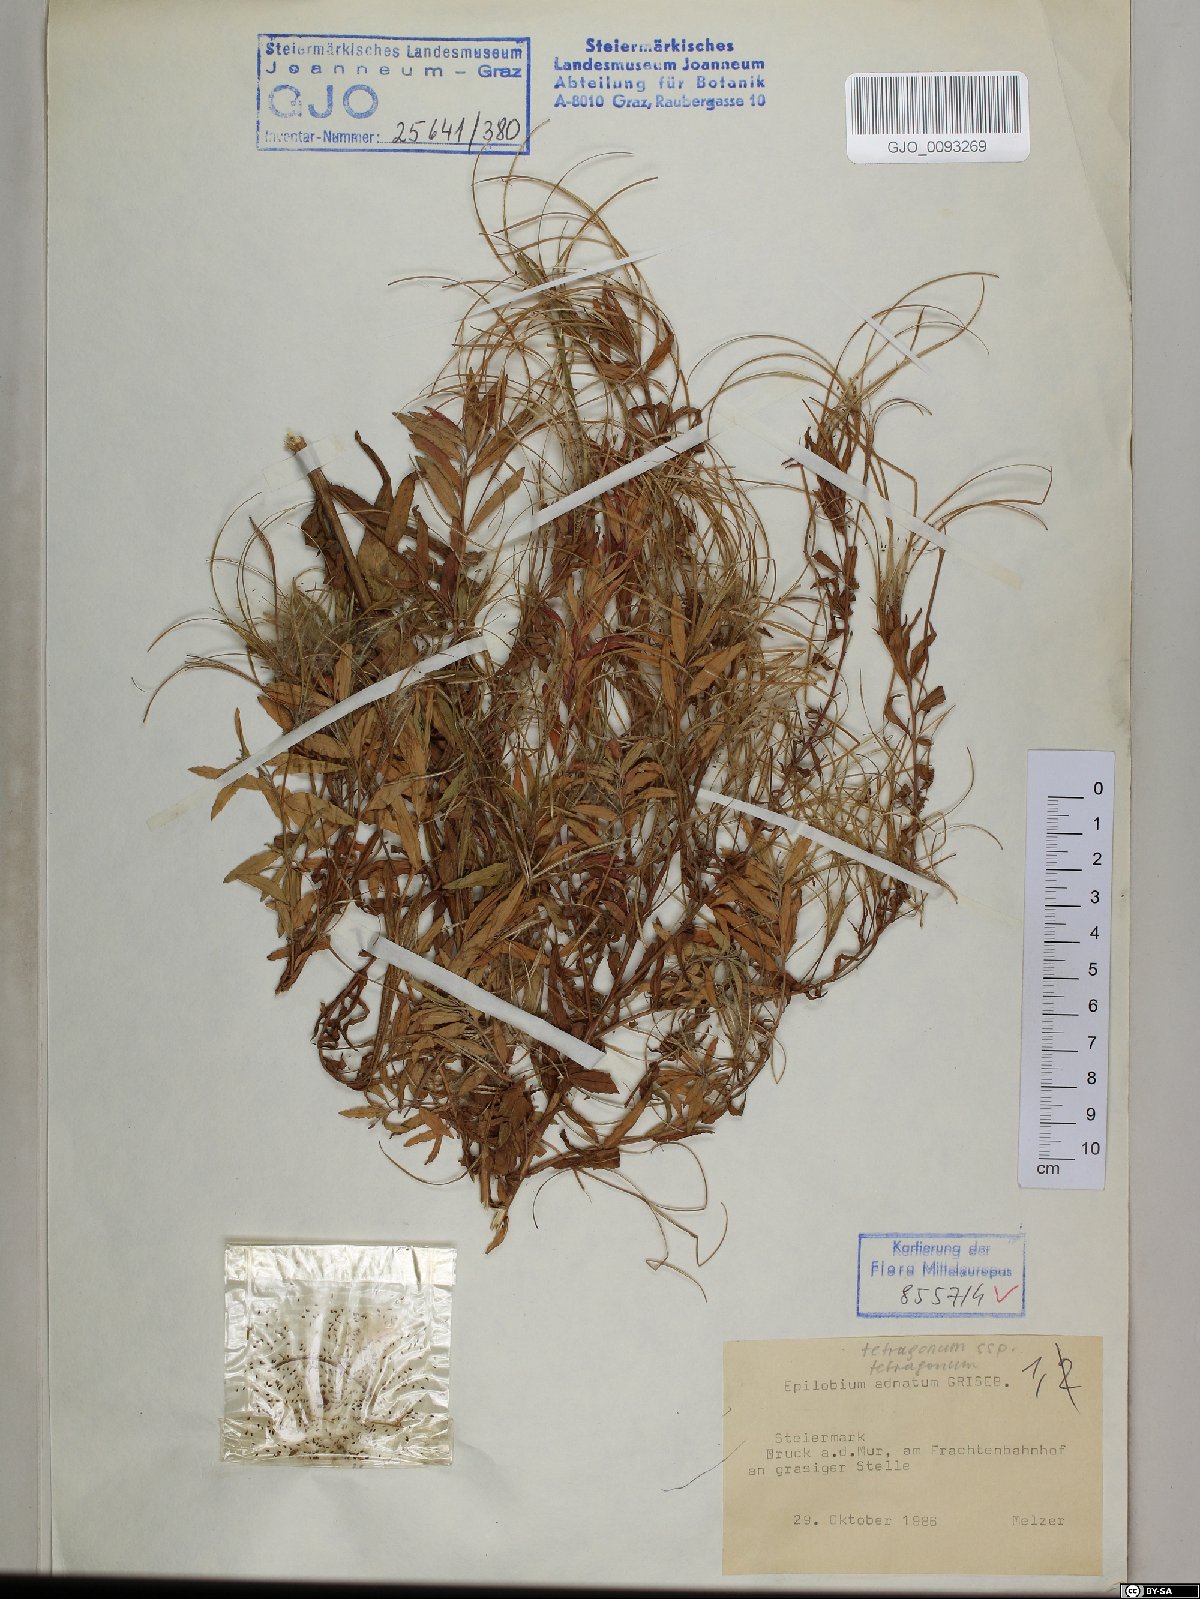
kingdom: Plantae
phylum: Tracheophyta
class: Magnoliopsida
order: Myrtales
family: Onagraceae
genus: Epilobium
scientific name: Epilobium tetragonum
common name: Square-stemmed willowherb
